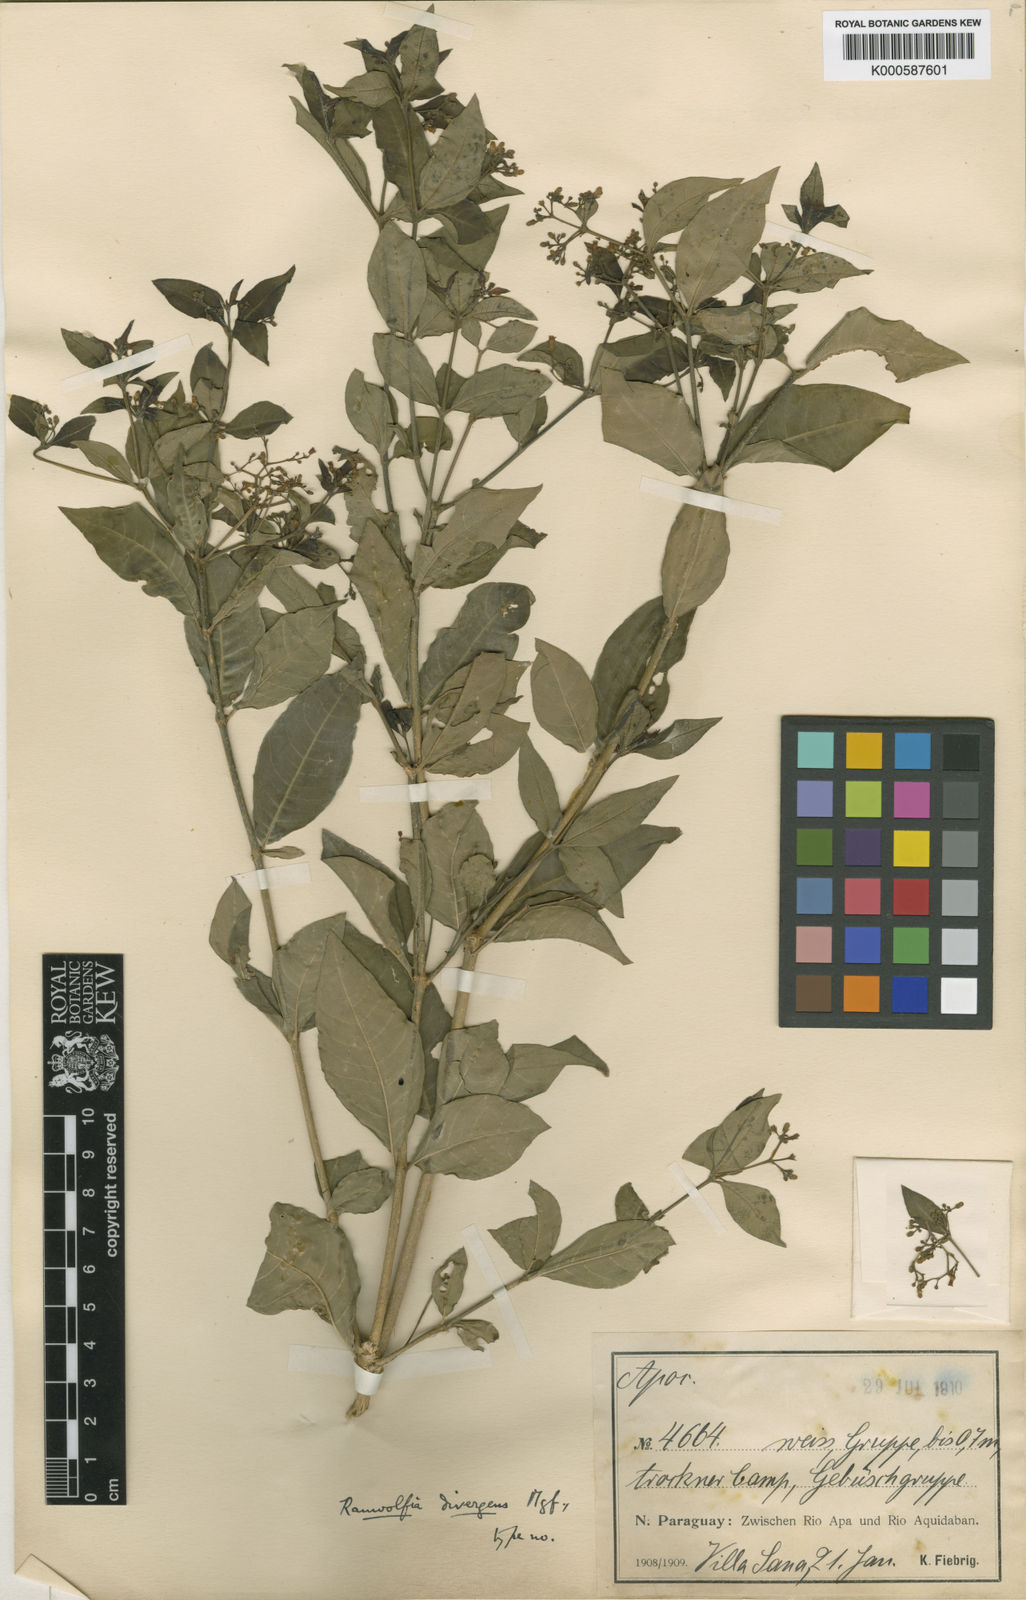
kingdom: Plantae
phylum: Tracheophyta
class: Magnoliopsida
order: Gentianales
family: Apocynaceae
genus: Rauvolfia
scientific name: Rauvolfia ligustrina
